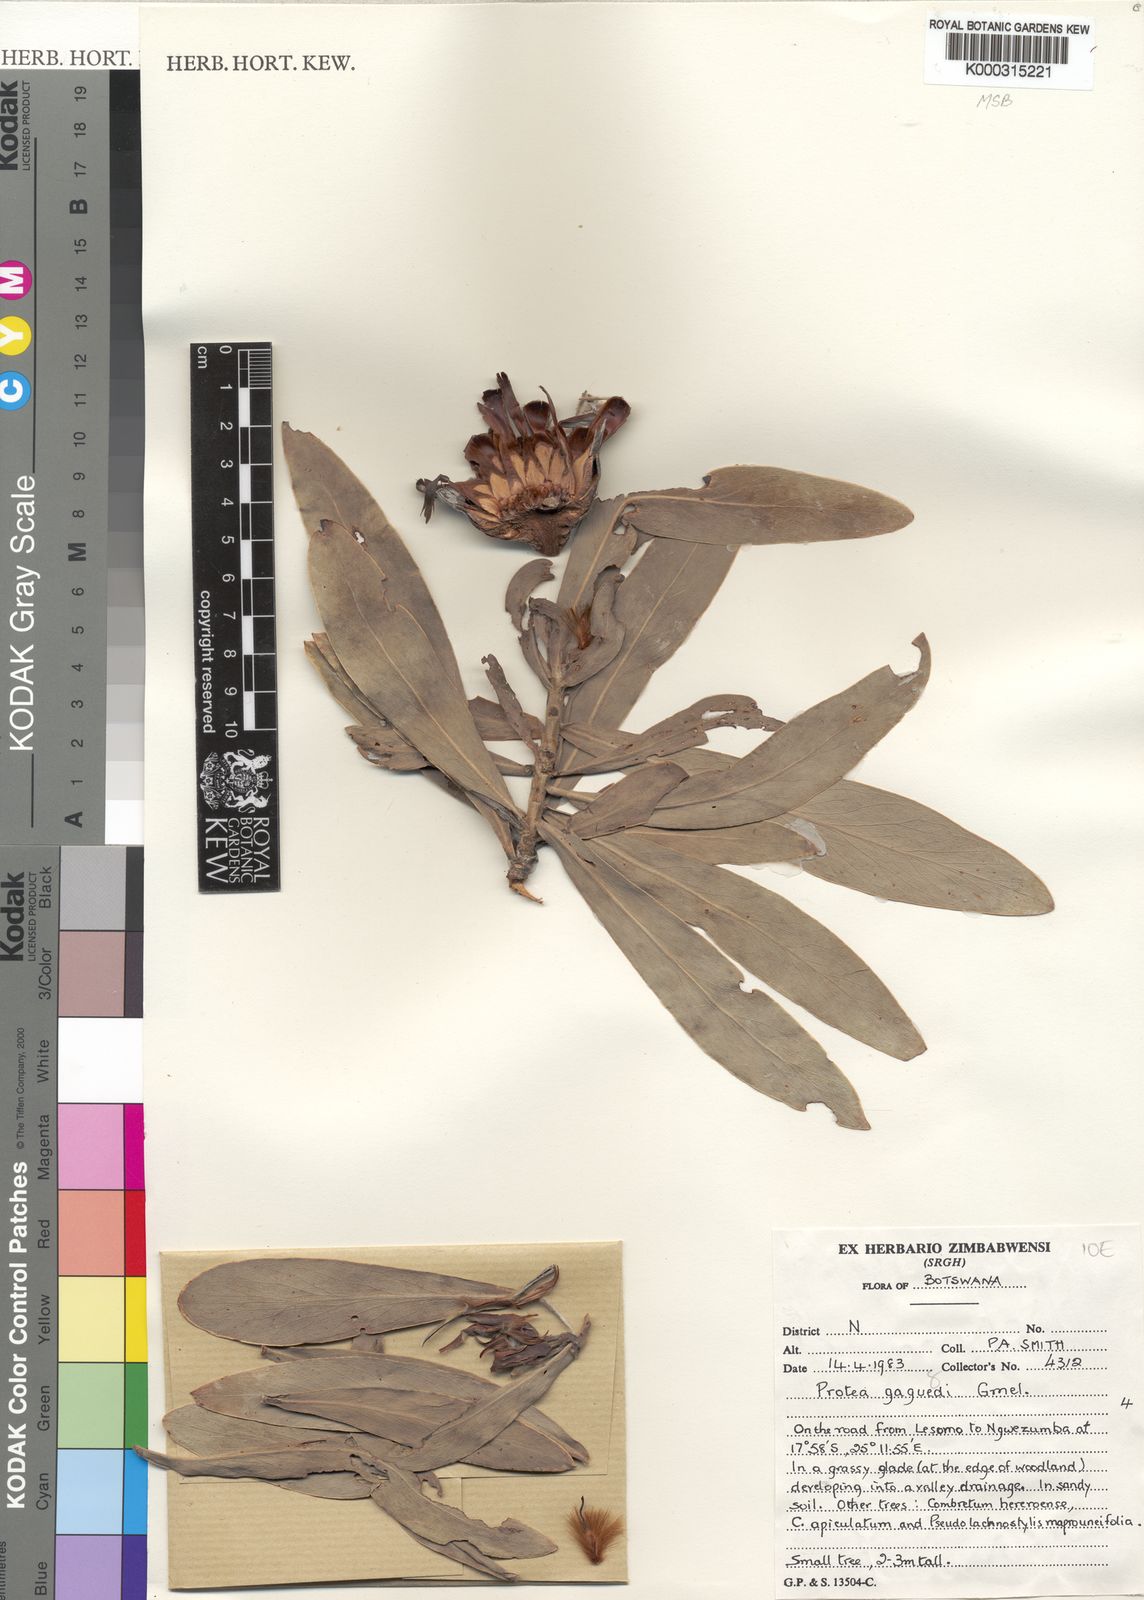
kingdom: Plantae
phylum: Tracheophyta
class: Magnoliopsida
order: Proteales
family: Proteaceae
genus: Protea
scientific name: Protea gaguedi
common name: African protea
